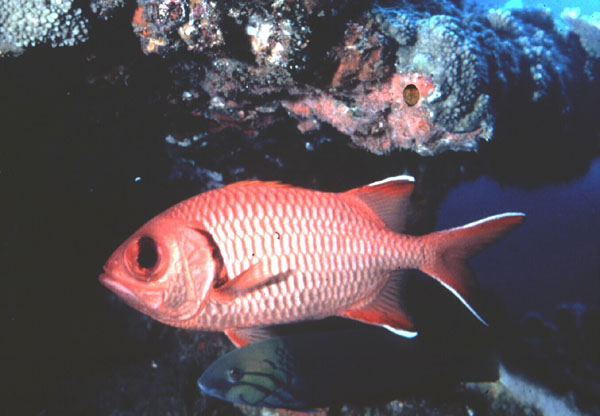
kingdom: Animalia
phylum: Chordata
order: Beryciformes
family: Holocentridae
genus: Myripristis
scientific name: Myripristis berndti
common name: Bigscale soldierfish
